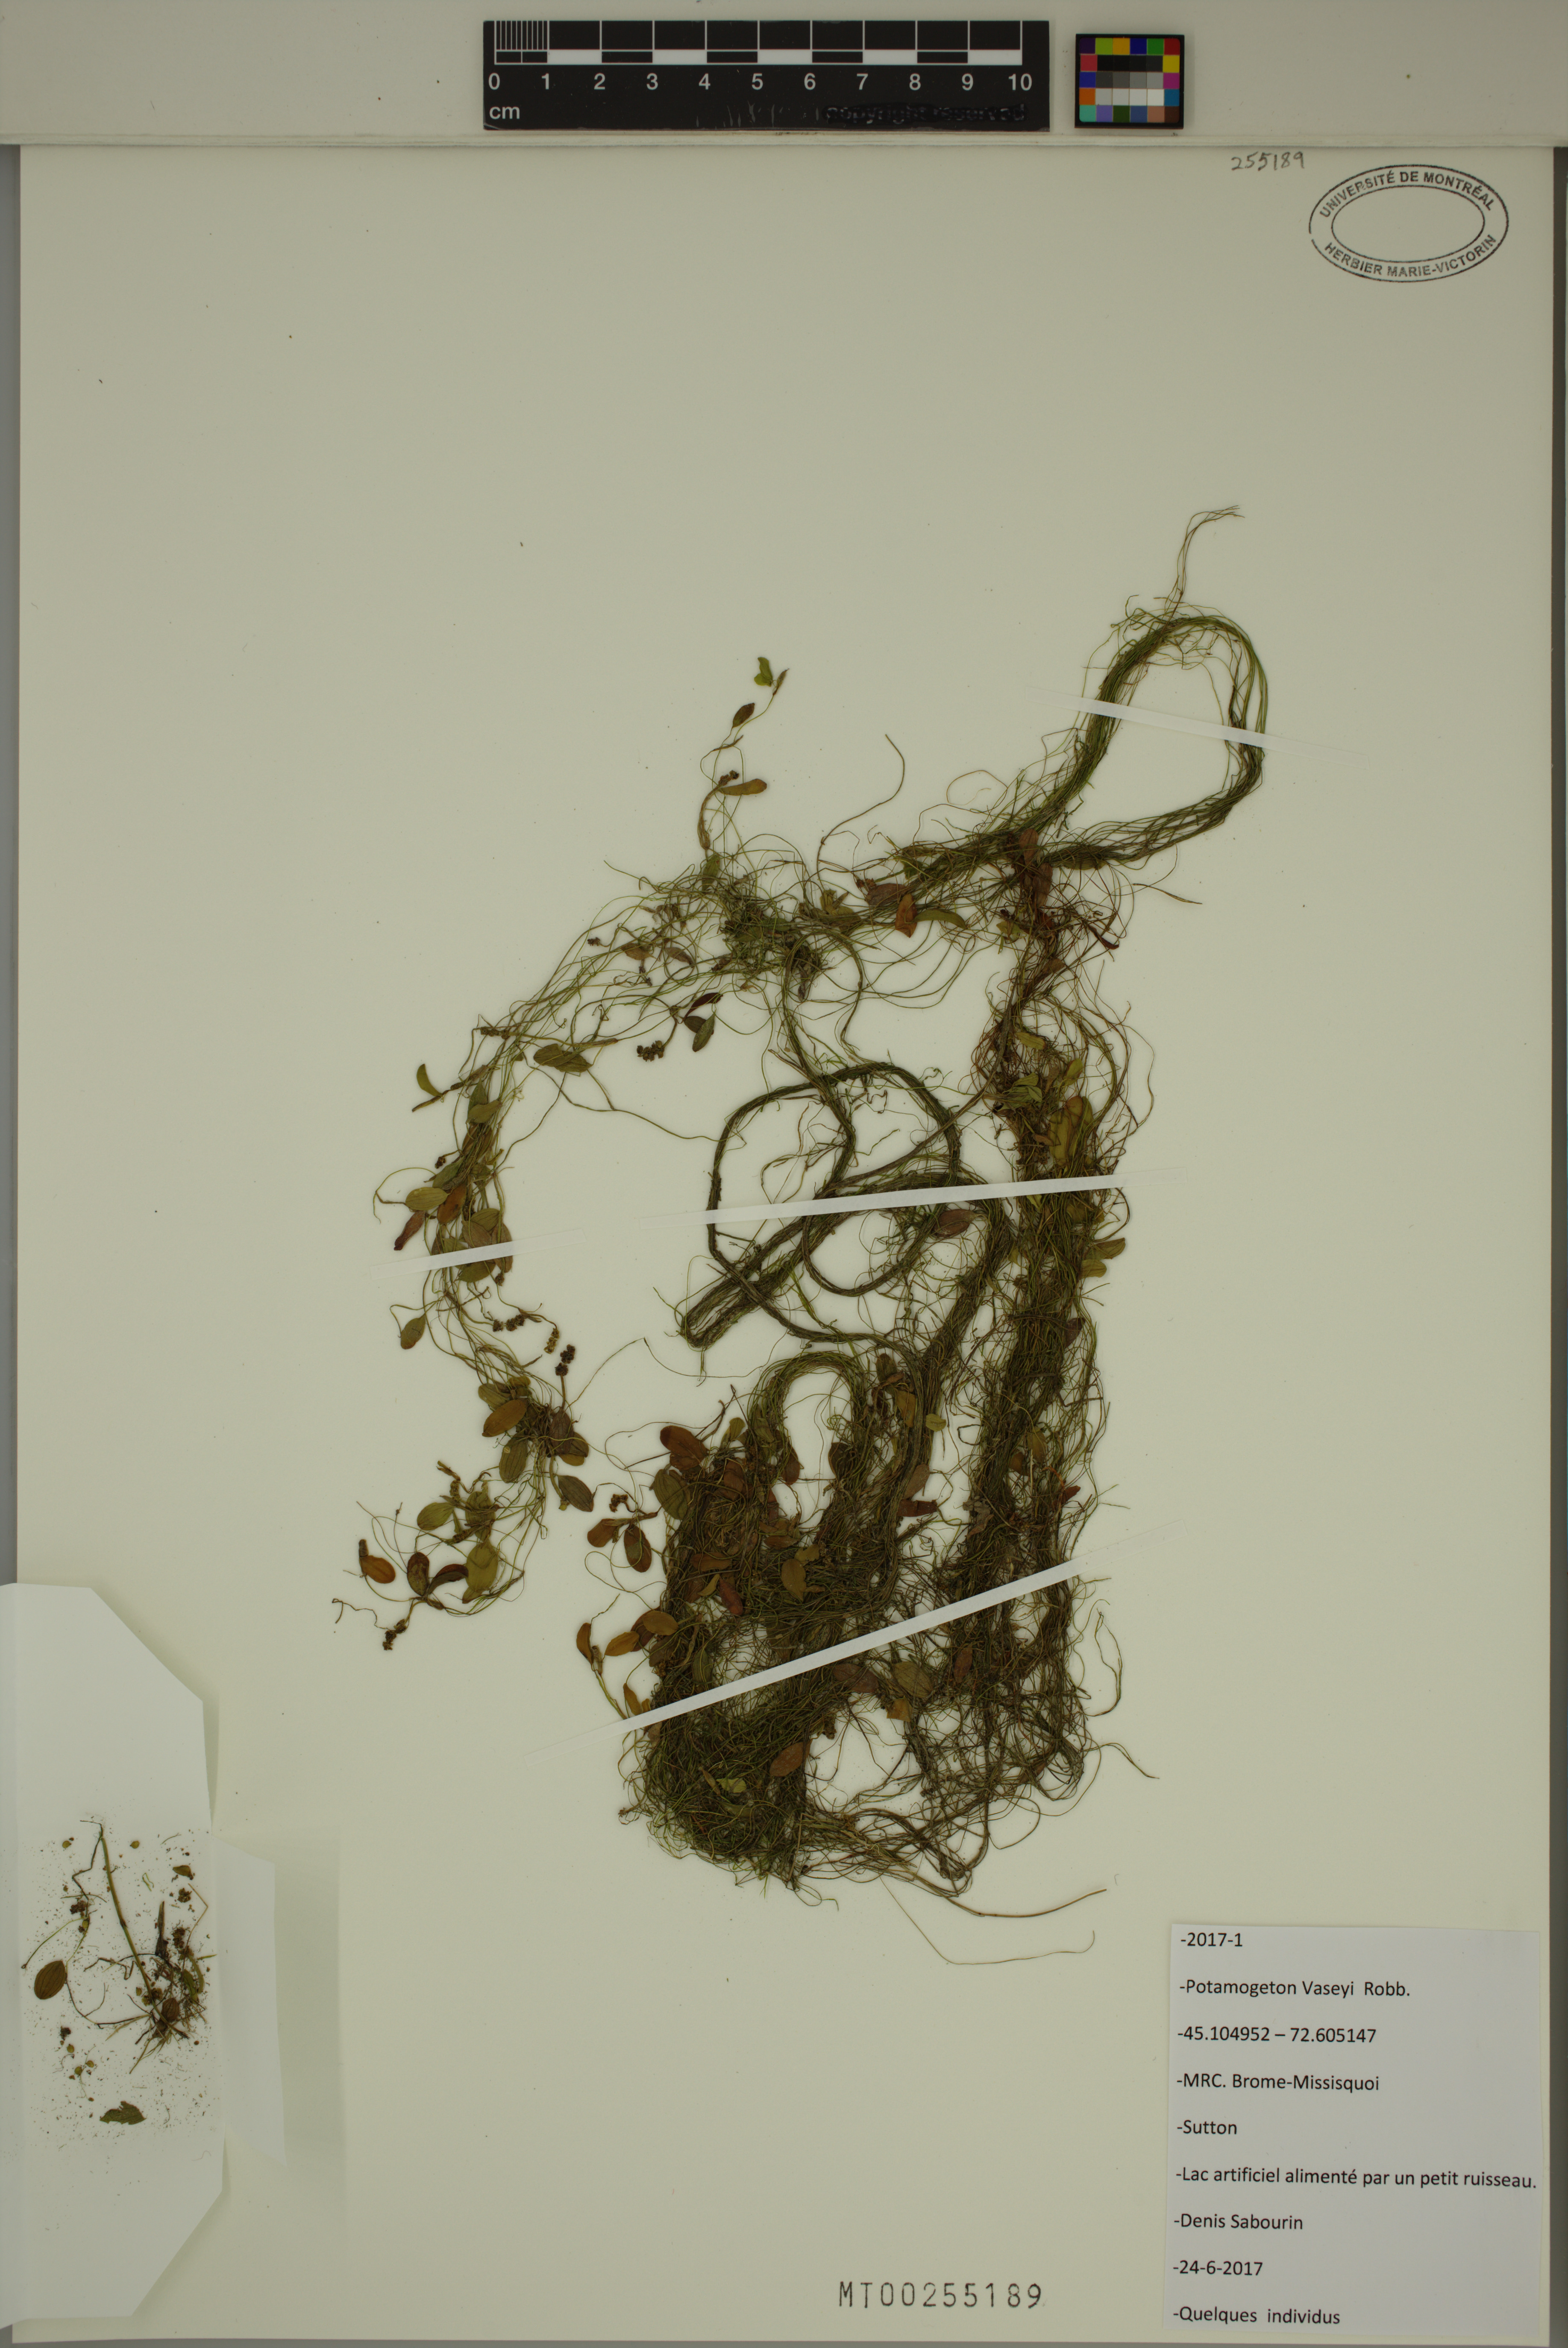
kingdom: Plantae
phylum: Tracheophyta
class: Liliopsida
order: Alismatales
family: Potamogetonaceae
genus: Potamogeton
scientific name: Potamogeton vaseyi
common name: Vasey's pondweed
